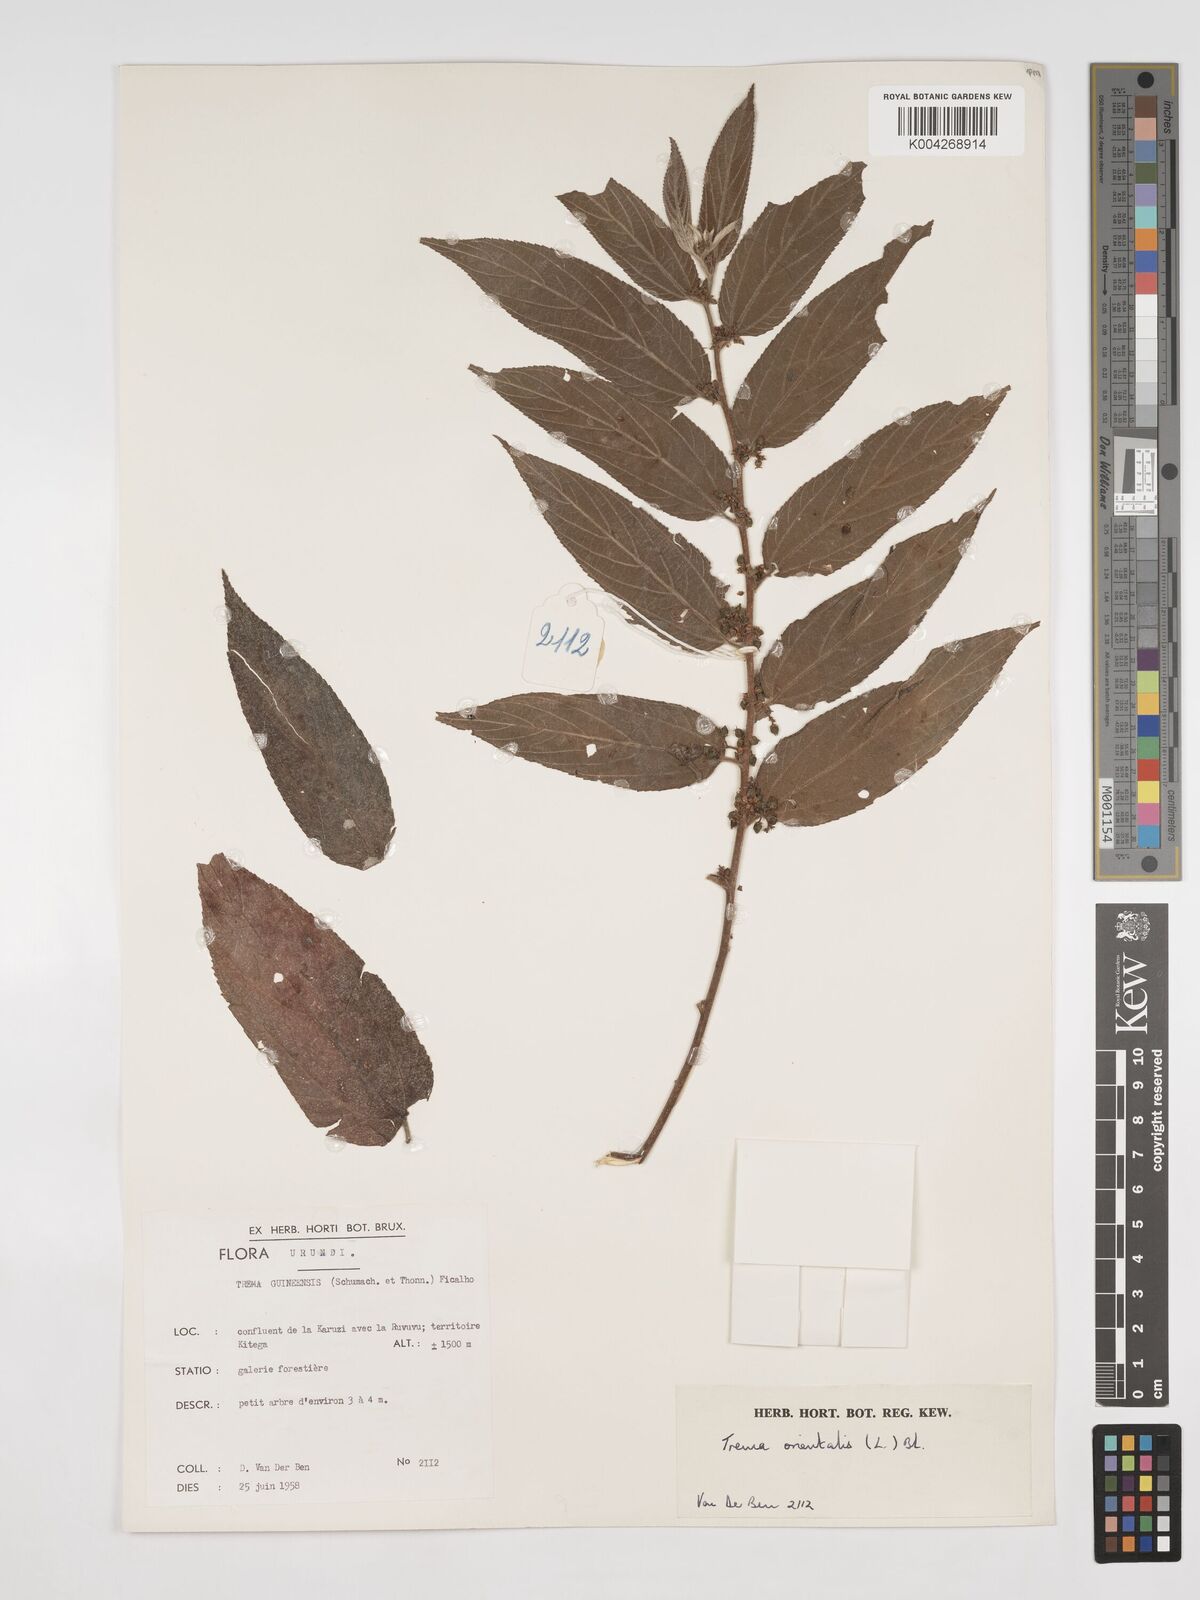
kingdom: Plantae
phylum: Tracheophyta
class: Magnoliopsida
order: Rosales
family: Cannabaceae
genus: Trema
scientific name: Trema orientale
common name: Indian charcoal tree
